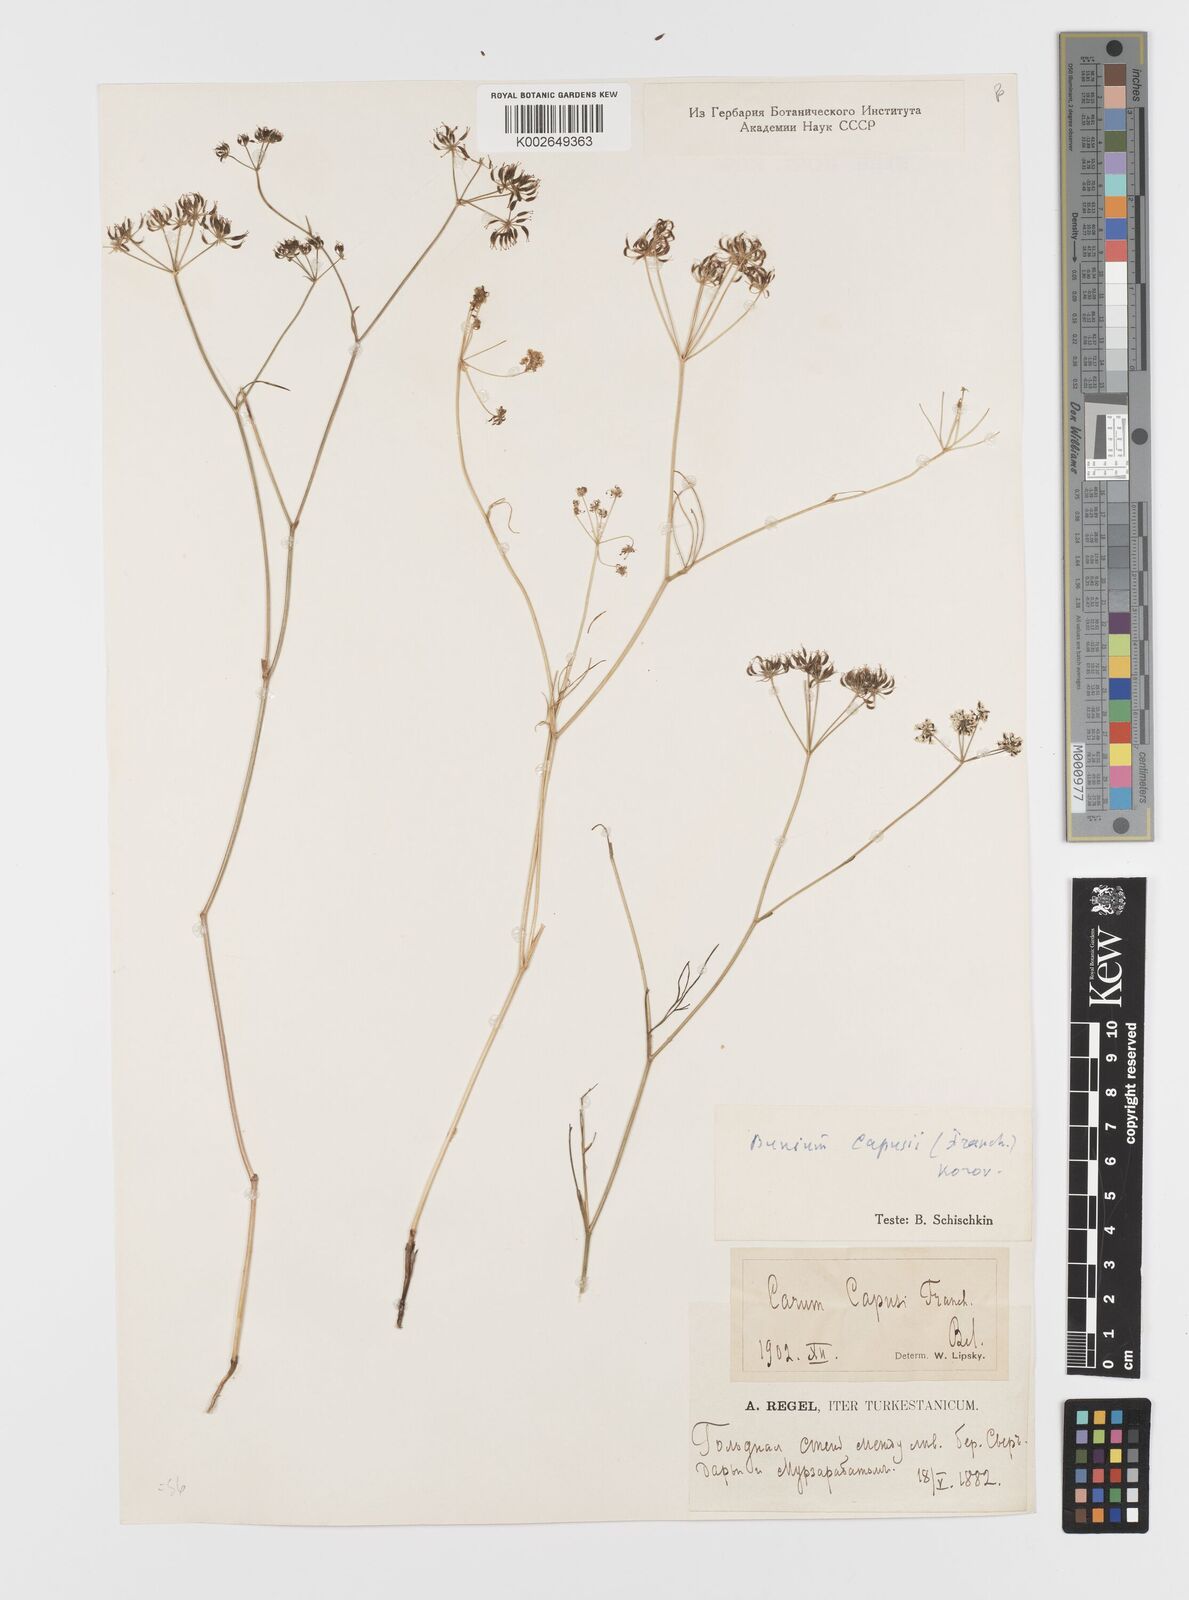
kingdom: Plantae
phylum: Tracheophyta
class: Magnoliopsida
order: Apiales
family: Apiaceae
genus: Elwendia
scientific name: Elwendia capusii
